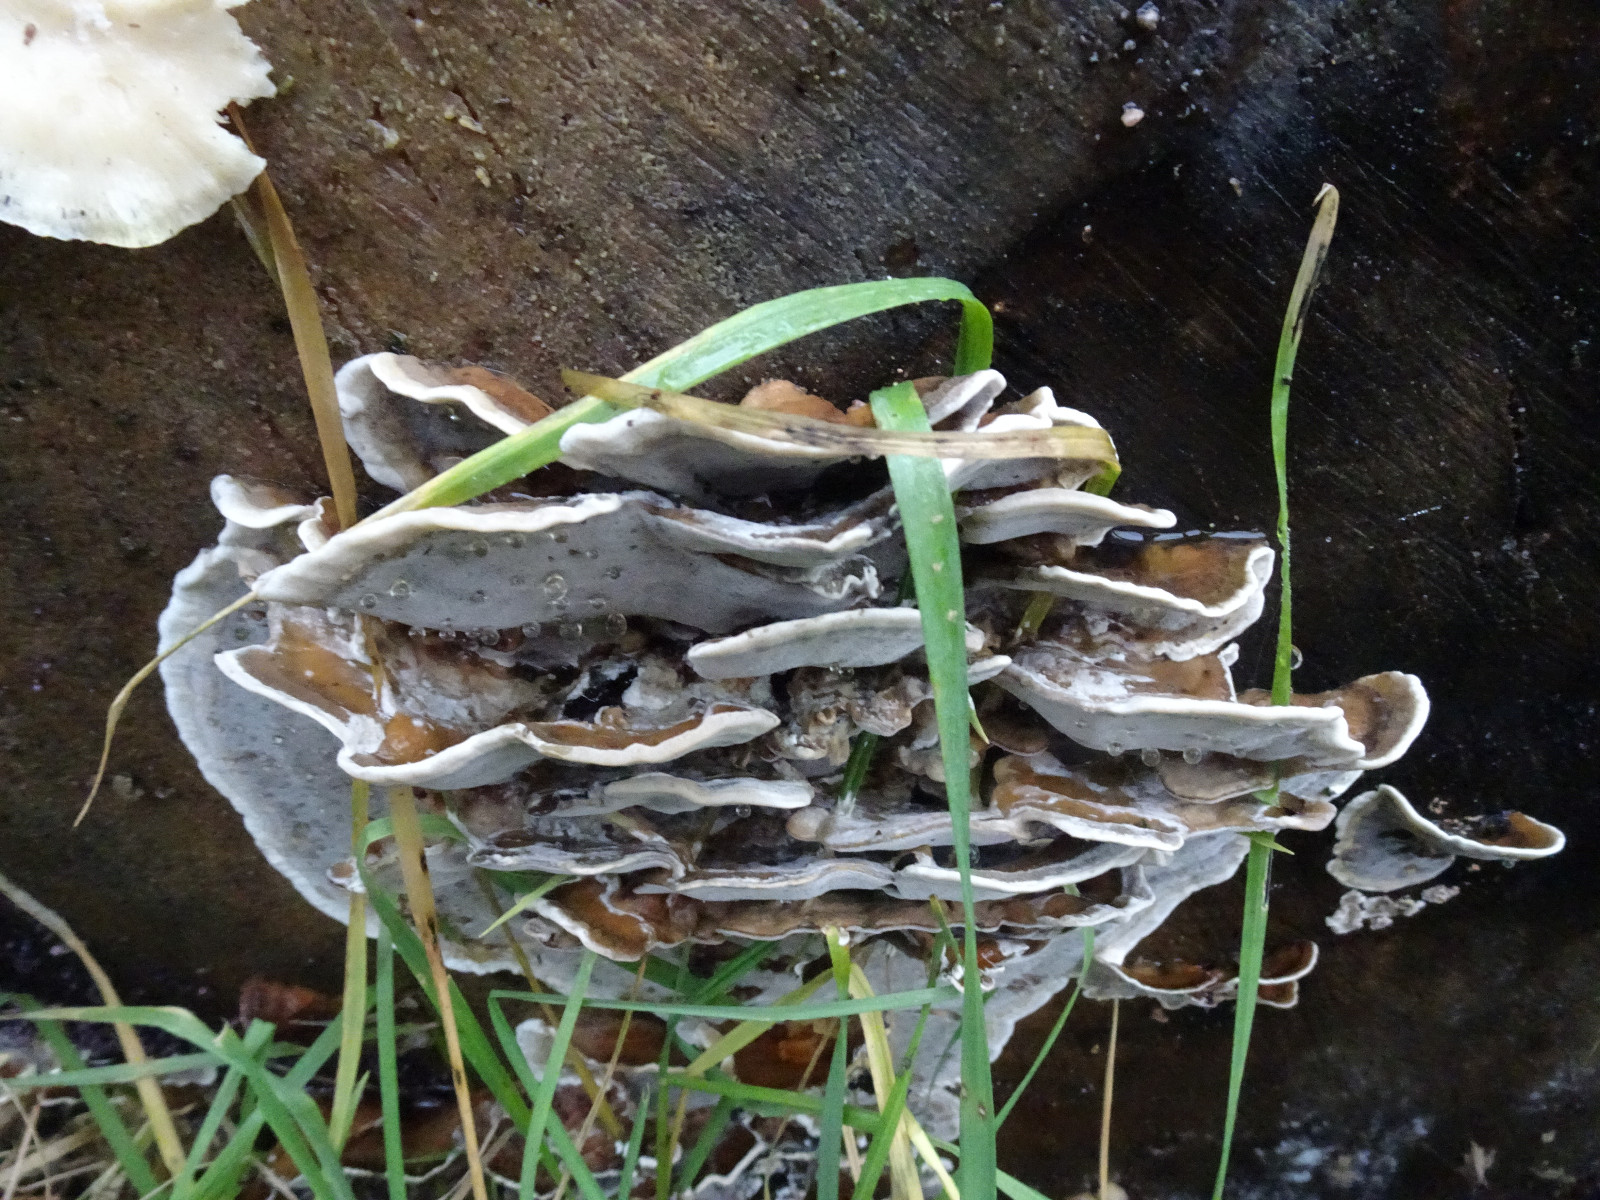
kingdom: Fungi
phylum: Basidiomycota
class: Agaricomycetes
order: Polyporales
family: Phanerochaetaceae
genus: Bjerkandera
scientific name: Bjerkandera adusta
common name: sveden sodporesvamp
